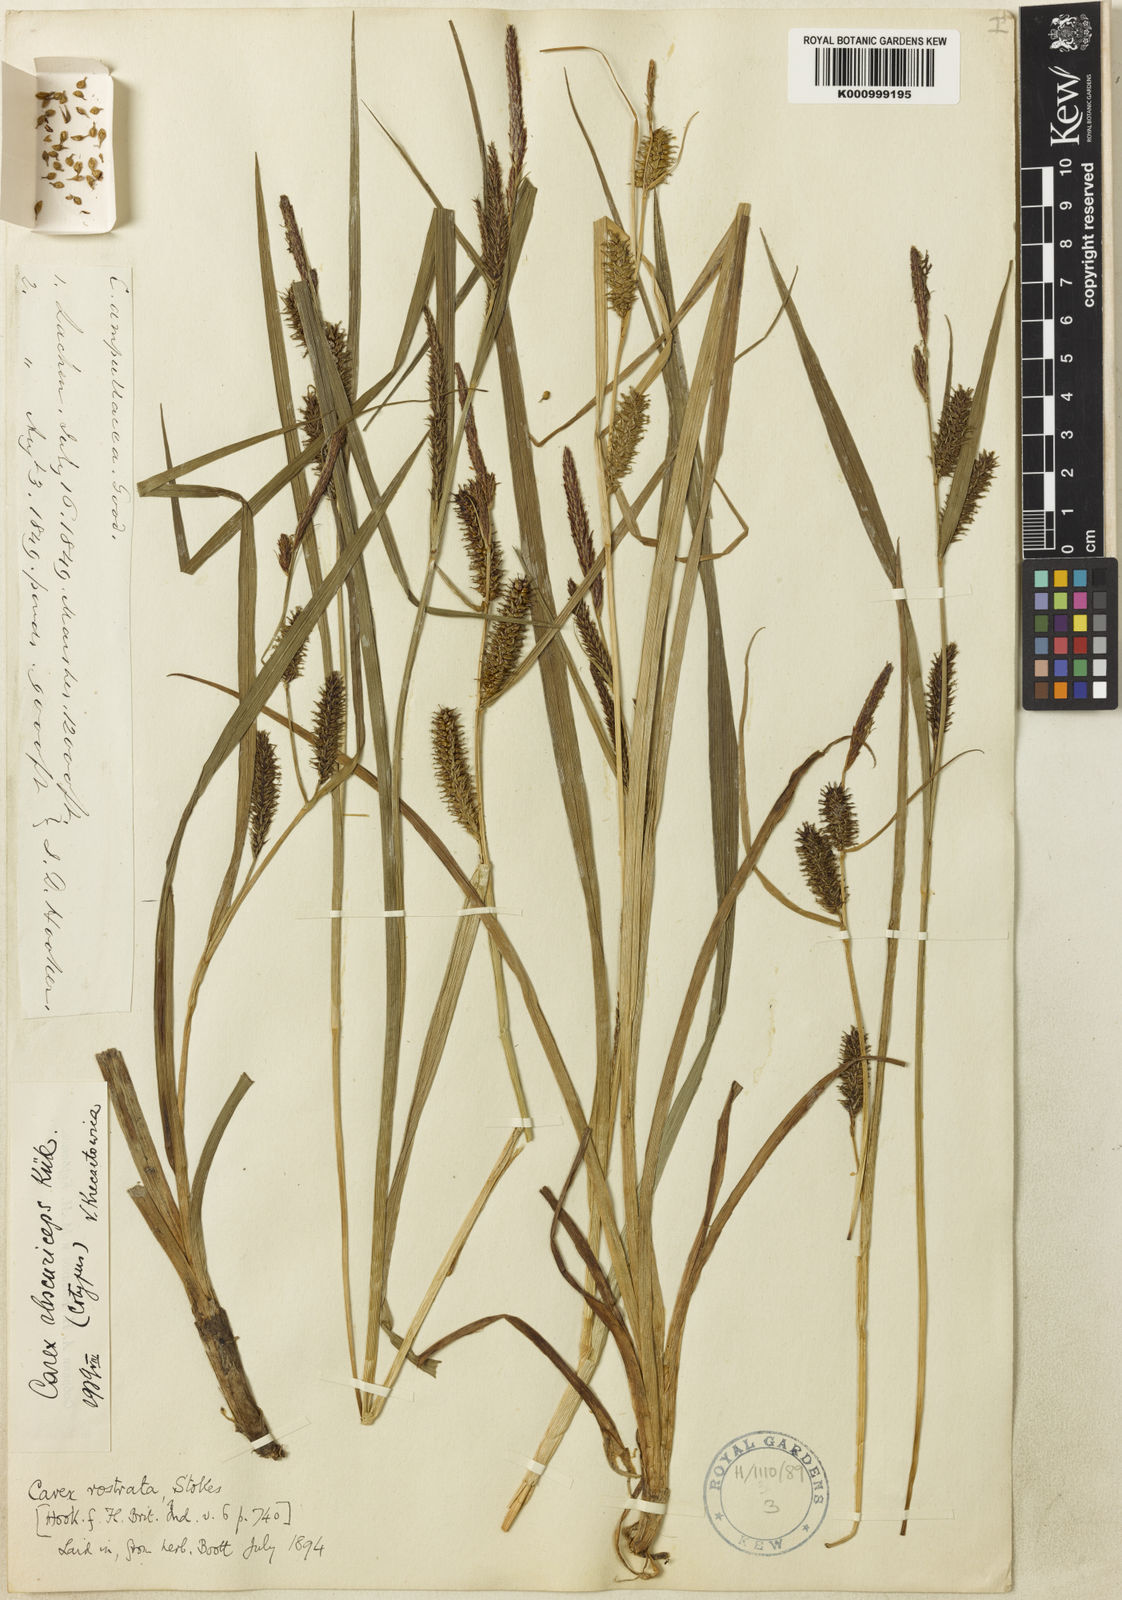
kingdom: Plantae
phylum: Tracheophyta
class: Liliopsida
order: Poales
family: Cyperaceae
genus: Carex
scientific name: Carex
